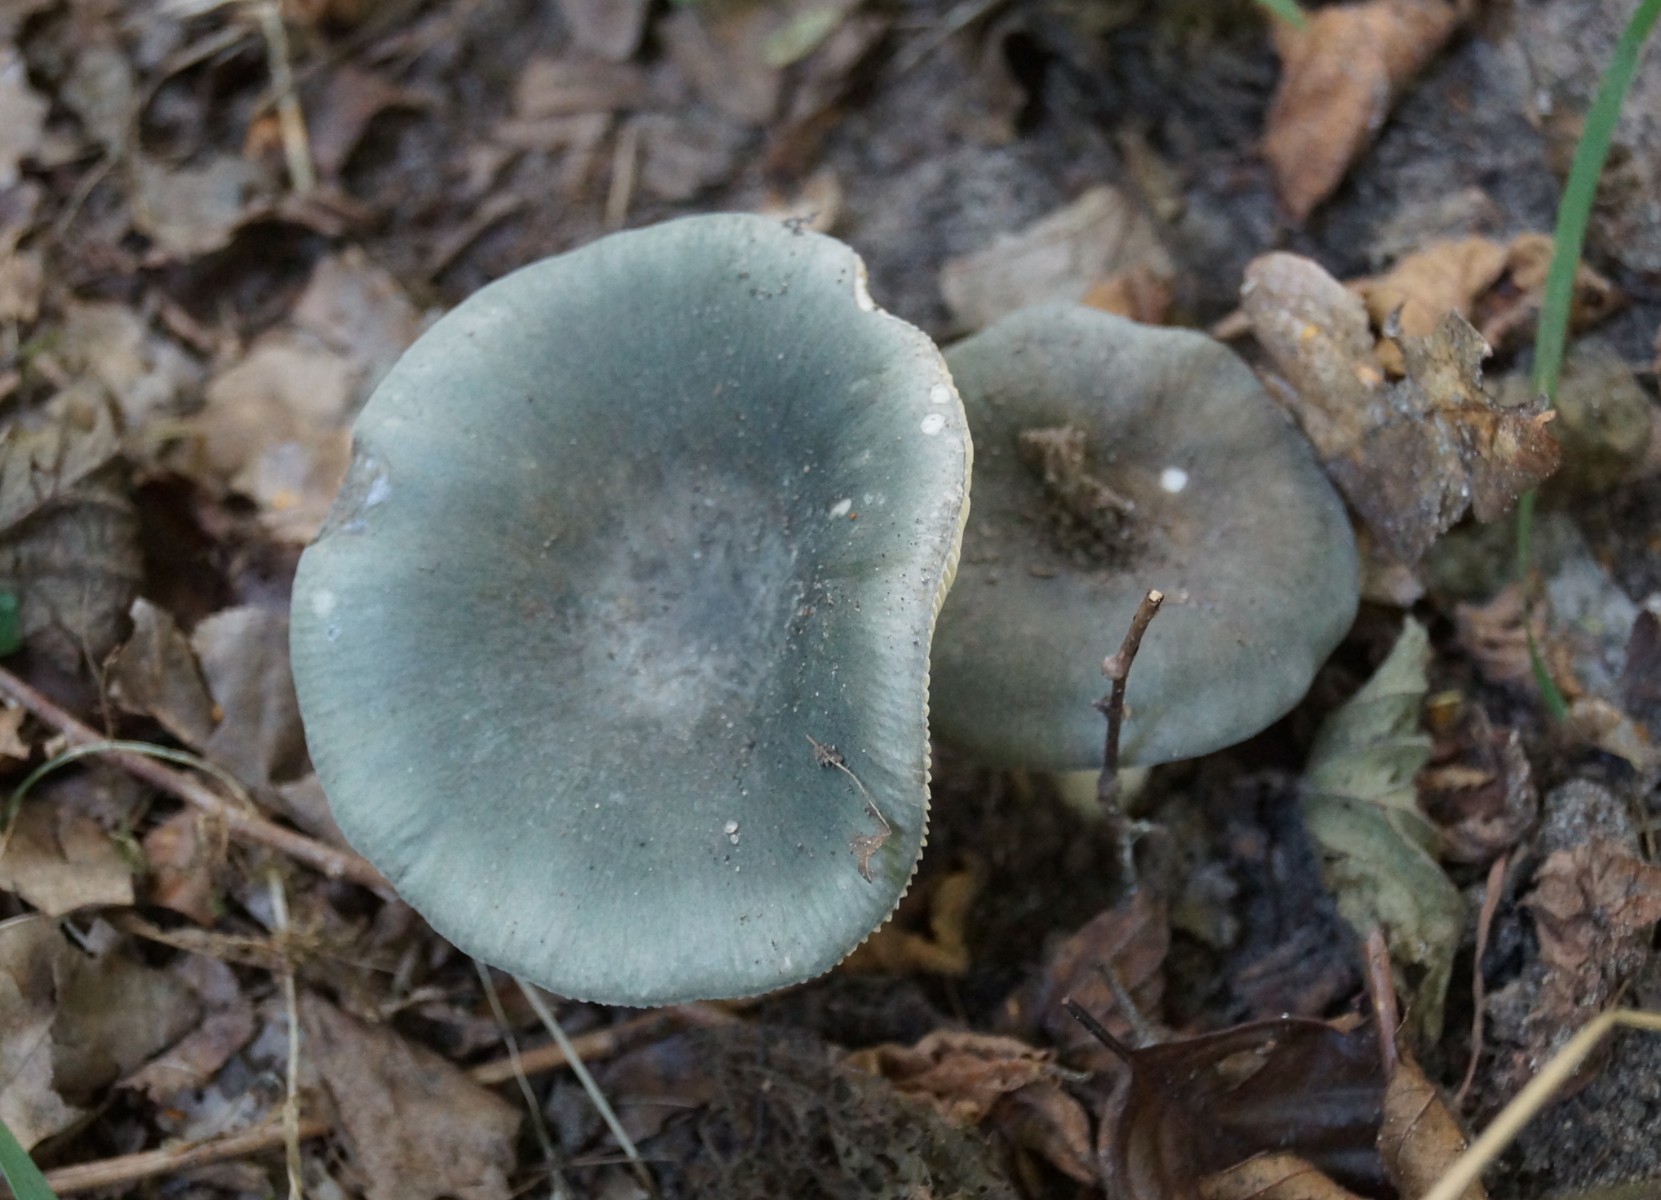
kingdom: Fungi
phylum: Basidiomycota
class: Agaricomycetes
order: Russulales
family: Russulaceae
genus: Russula
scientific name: Russula parazurea
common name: blågrå skørhat
